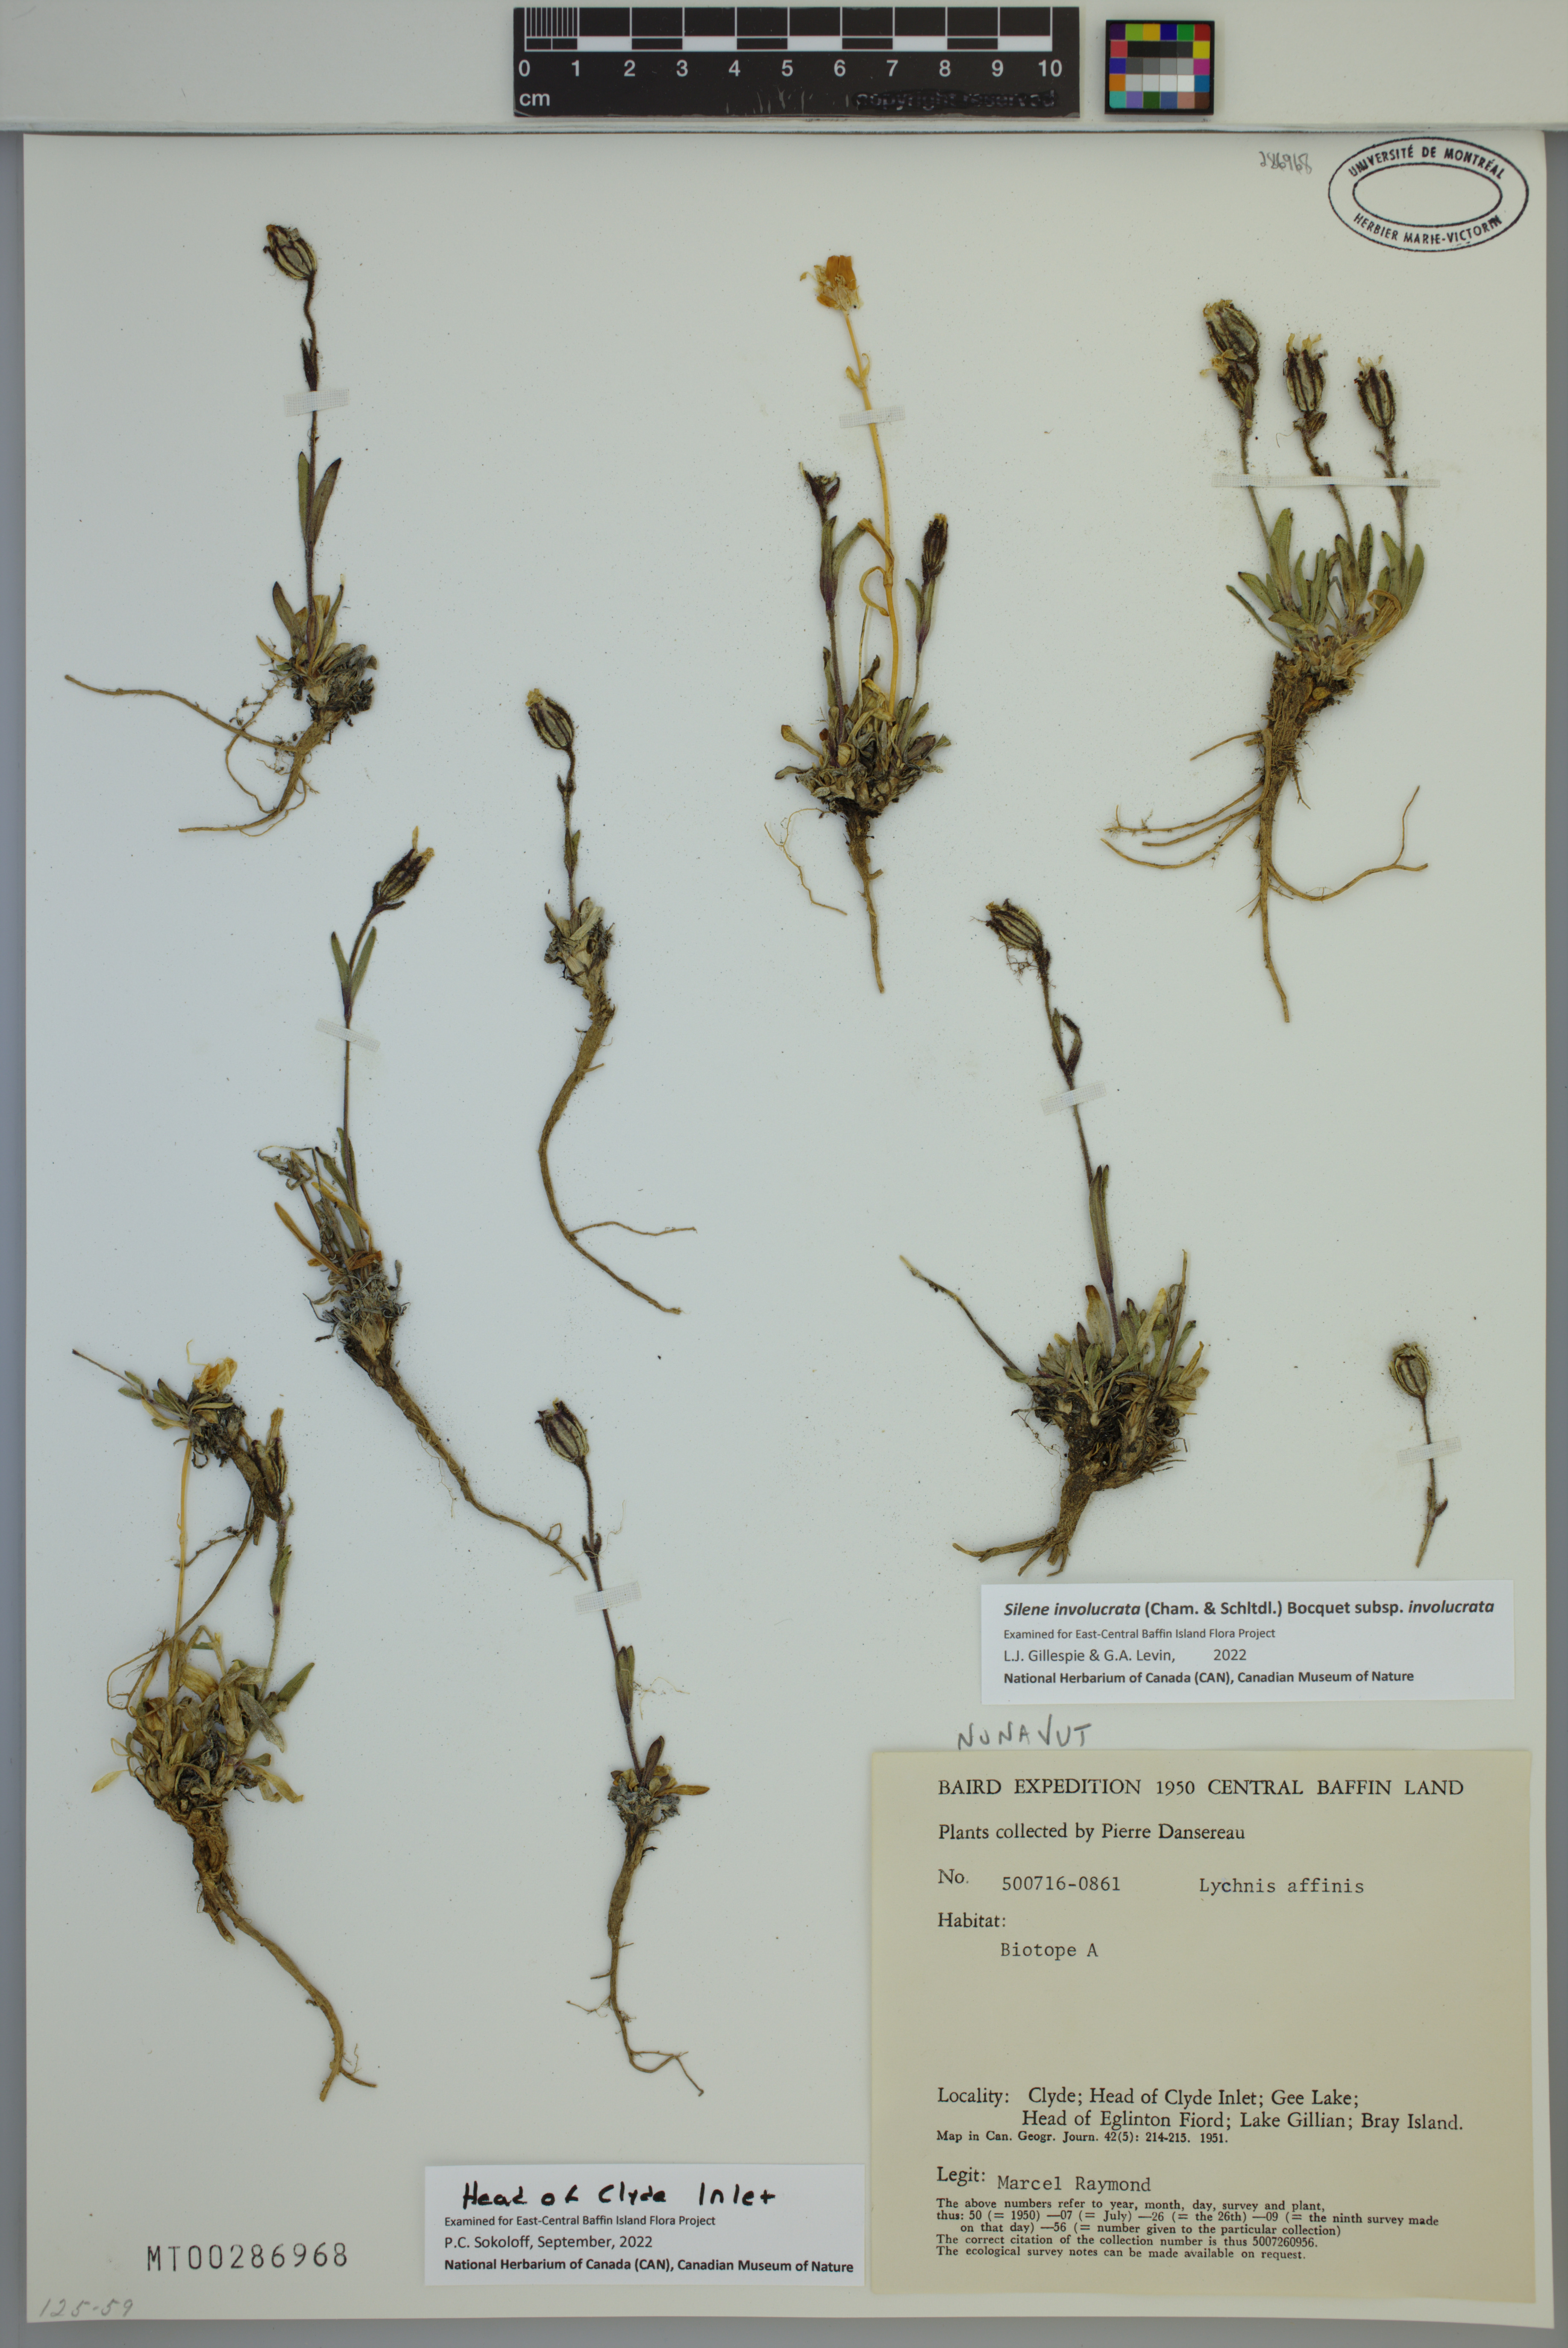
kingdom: Plantae
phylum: Tracheophyta
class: Magnoliopsida
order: Caryophyllales
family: Caryophyllaceae
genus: Silene
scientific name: Silene involucrata
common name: Greater arctic campion
